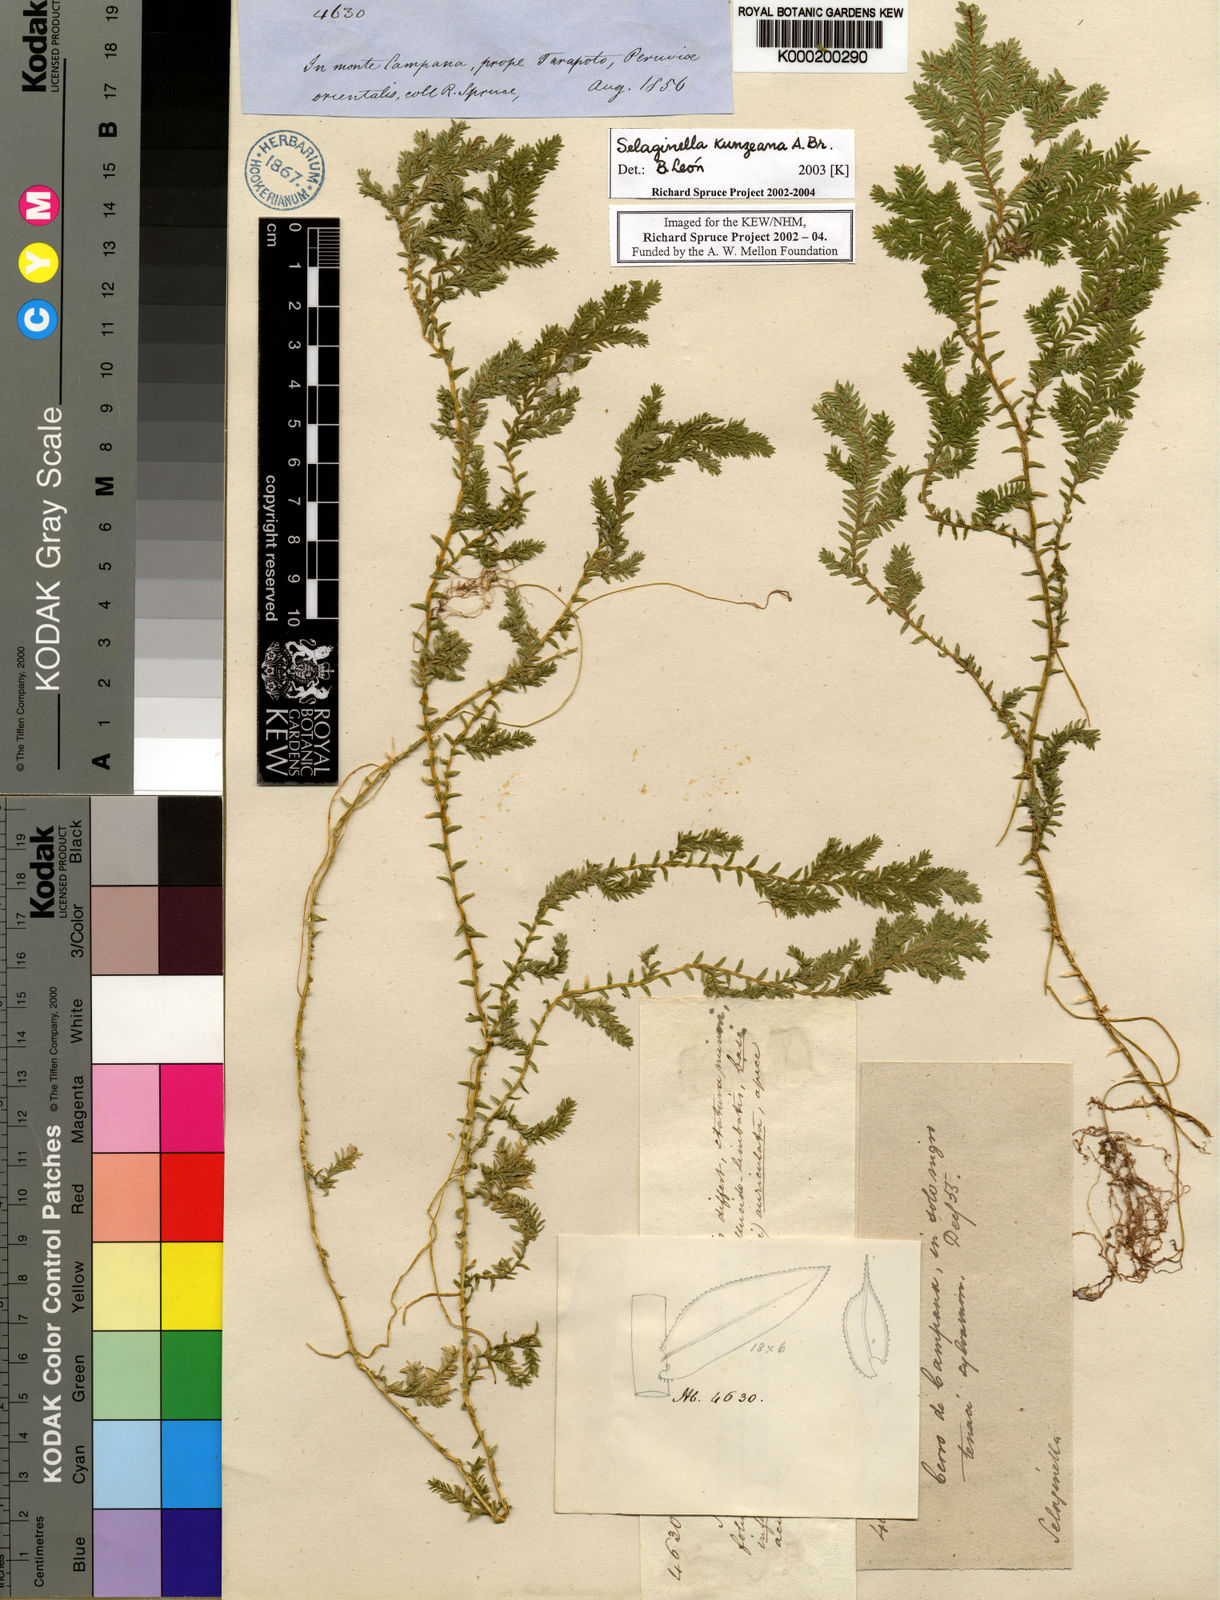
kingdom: Plantae
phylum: Tracheophyta
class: Lycopodiopsida
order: Selaginellales
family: Selaginellaceae
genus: Selaginella
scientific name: Selaginella
